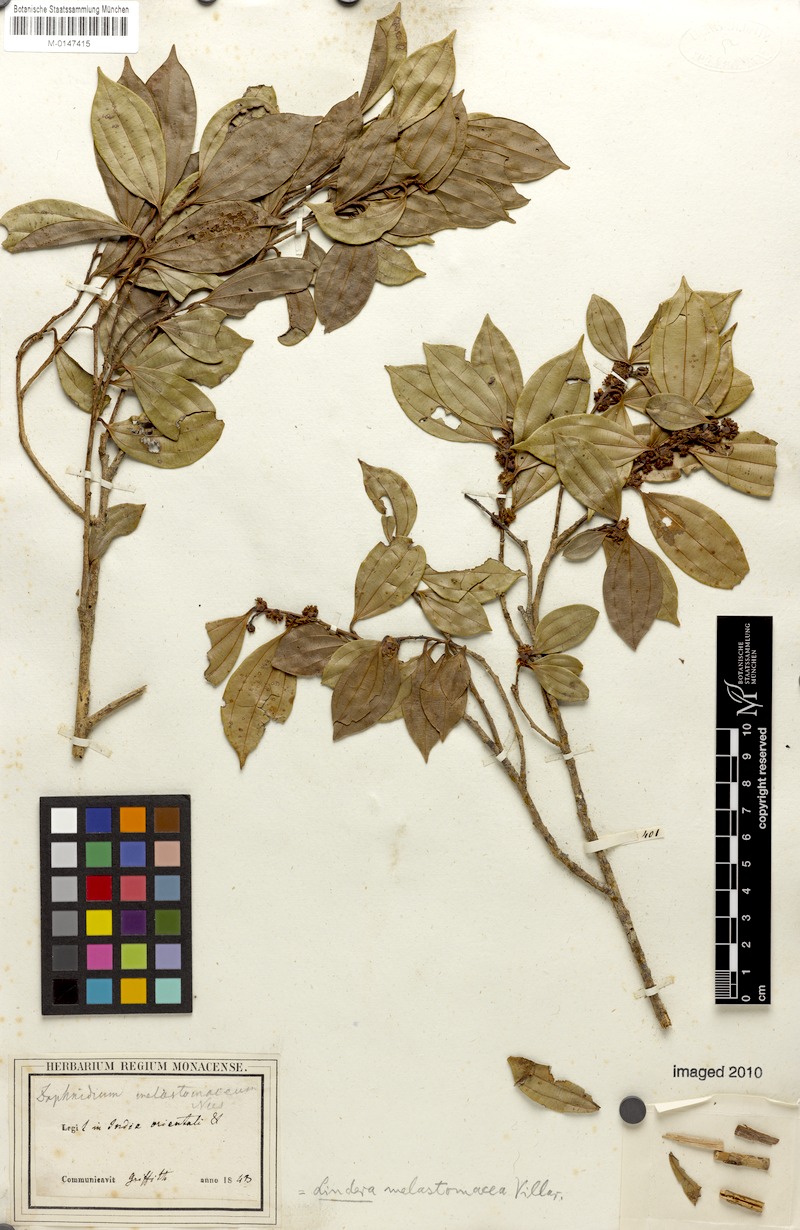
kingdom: Plantae
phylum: Tracheophyta
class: Magnoliopsida
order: Laurales
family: Lauraceae
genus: Lindera
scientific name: Lindera melastomacea
